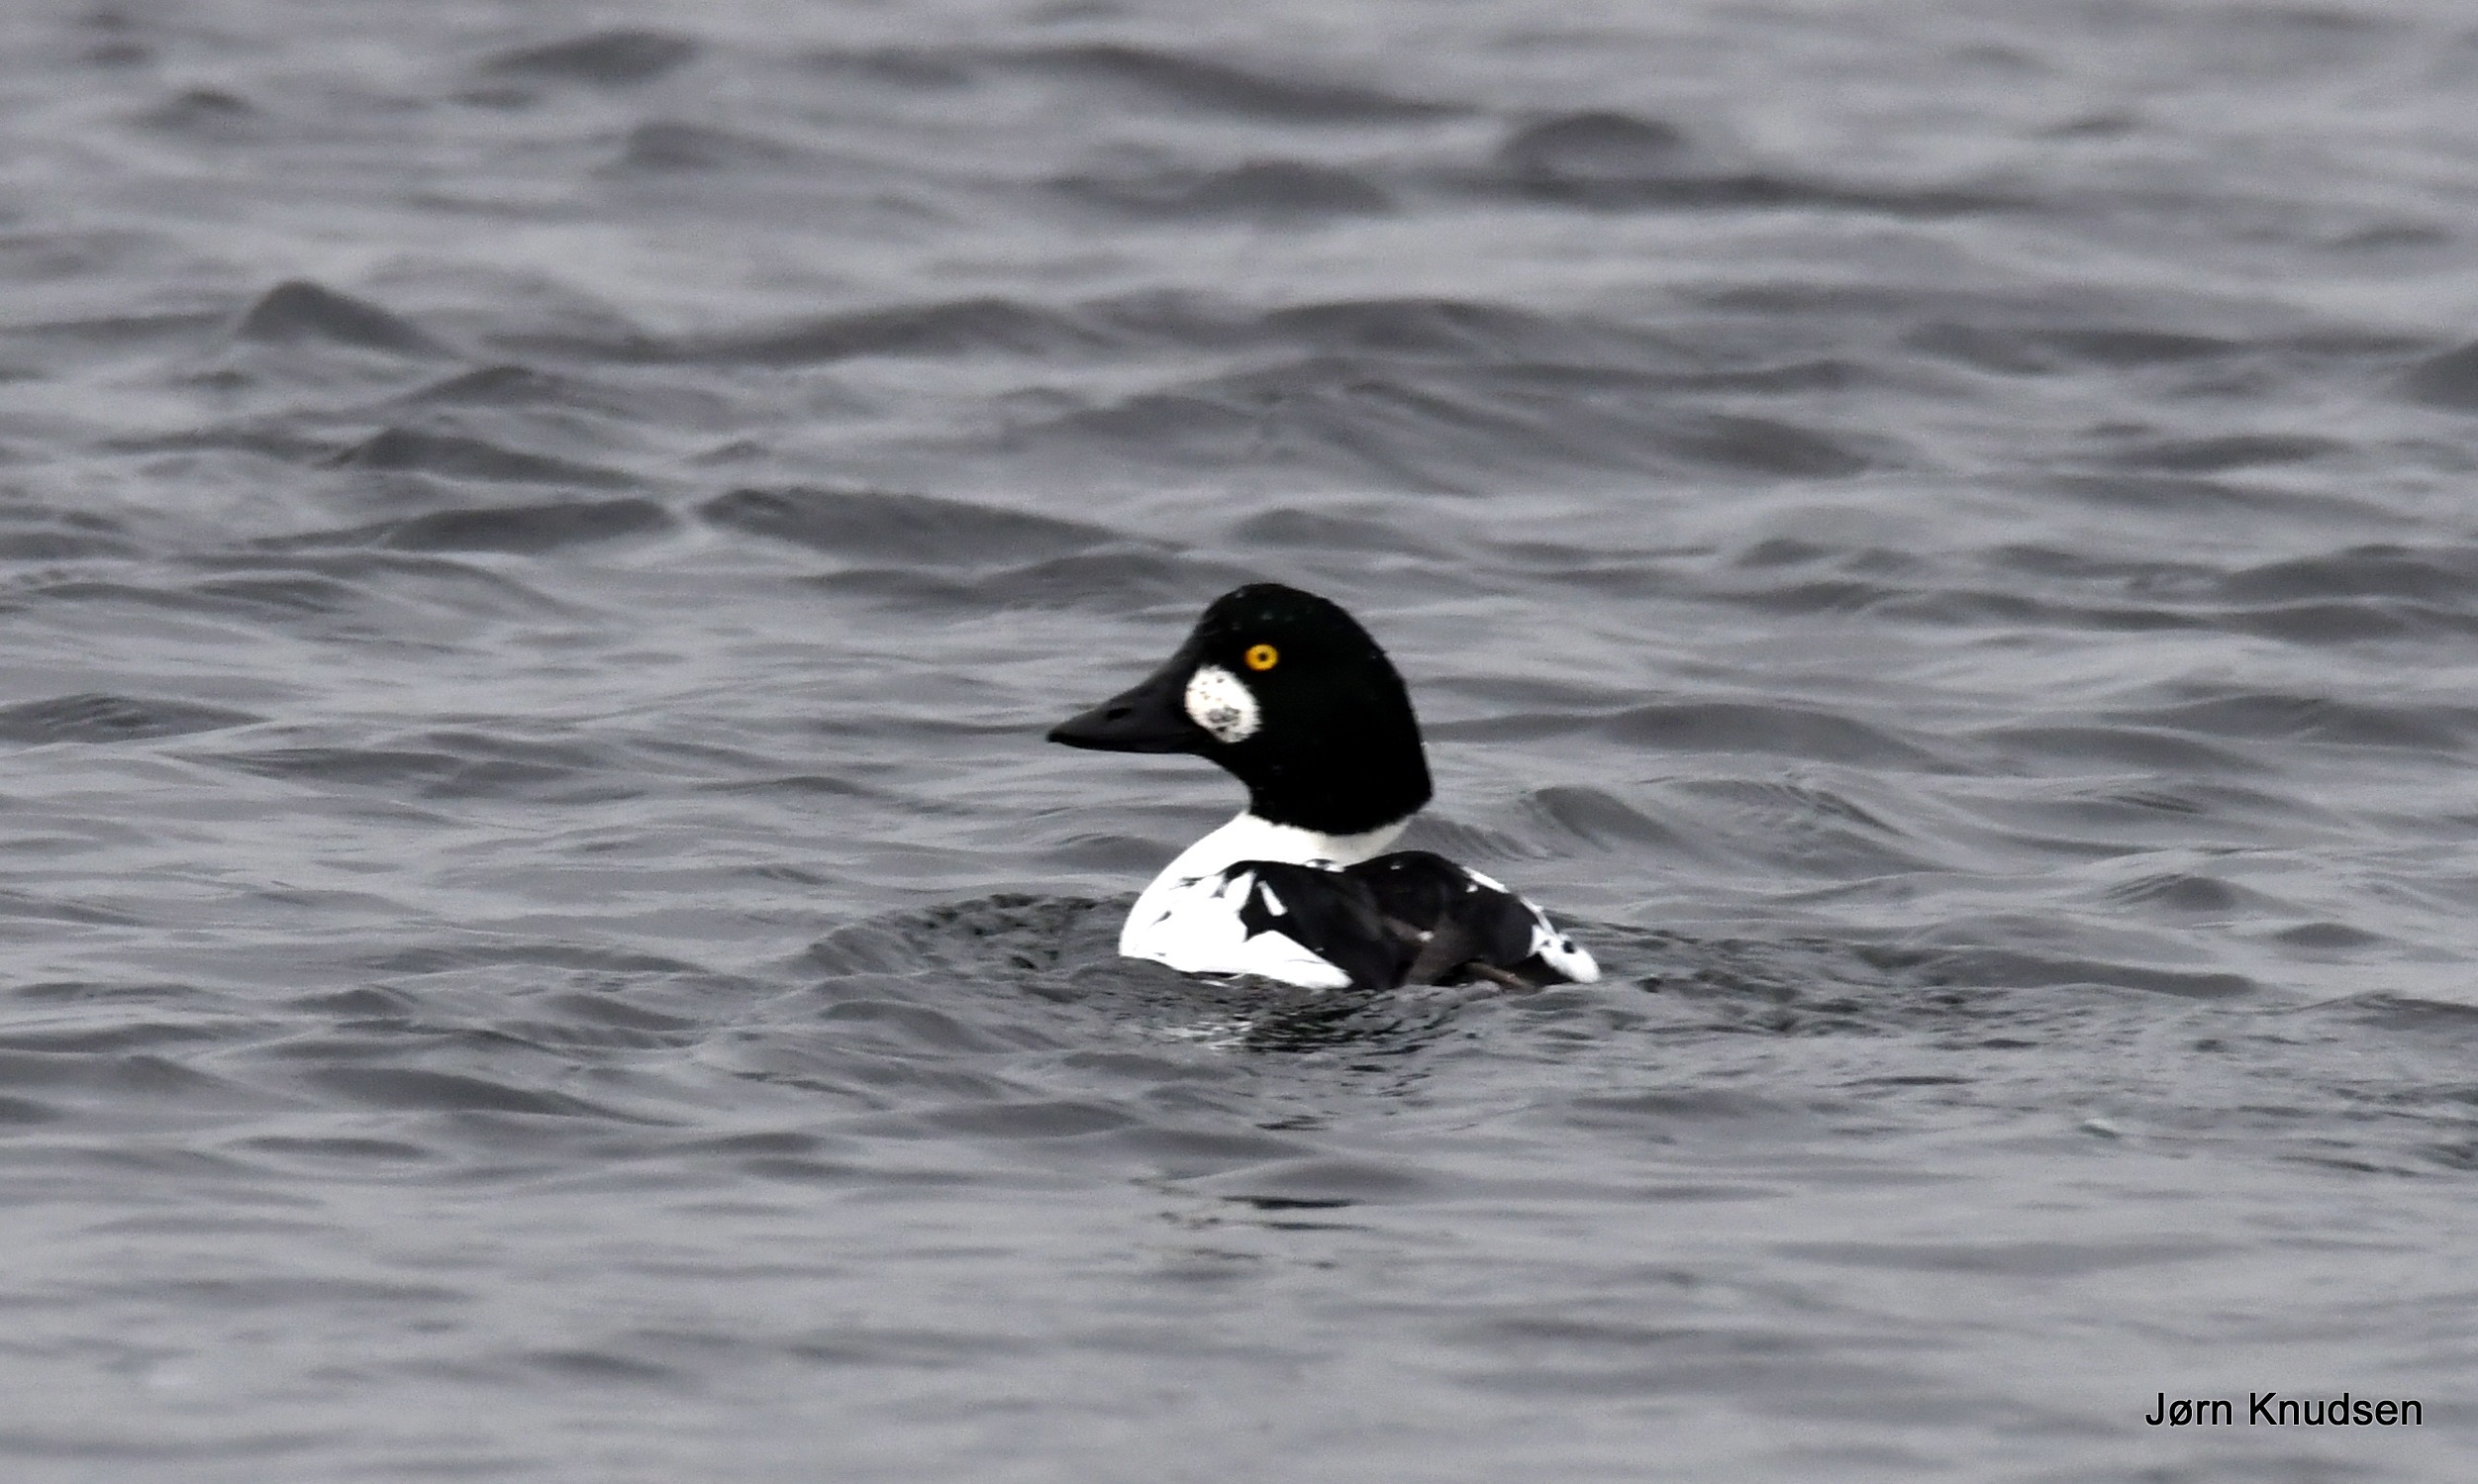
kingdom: Animalia
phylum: Chordata
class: Aves
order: Anseriformes
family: Anatidae
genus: Bucephala
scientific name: Bucephala clangula
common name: Hvinand
